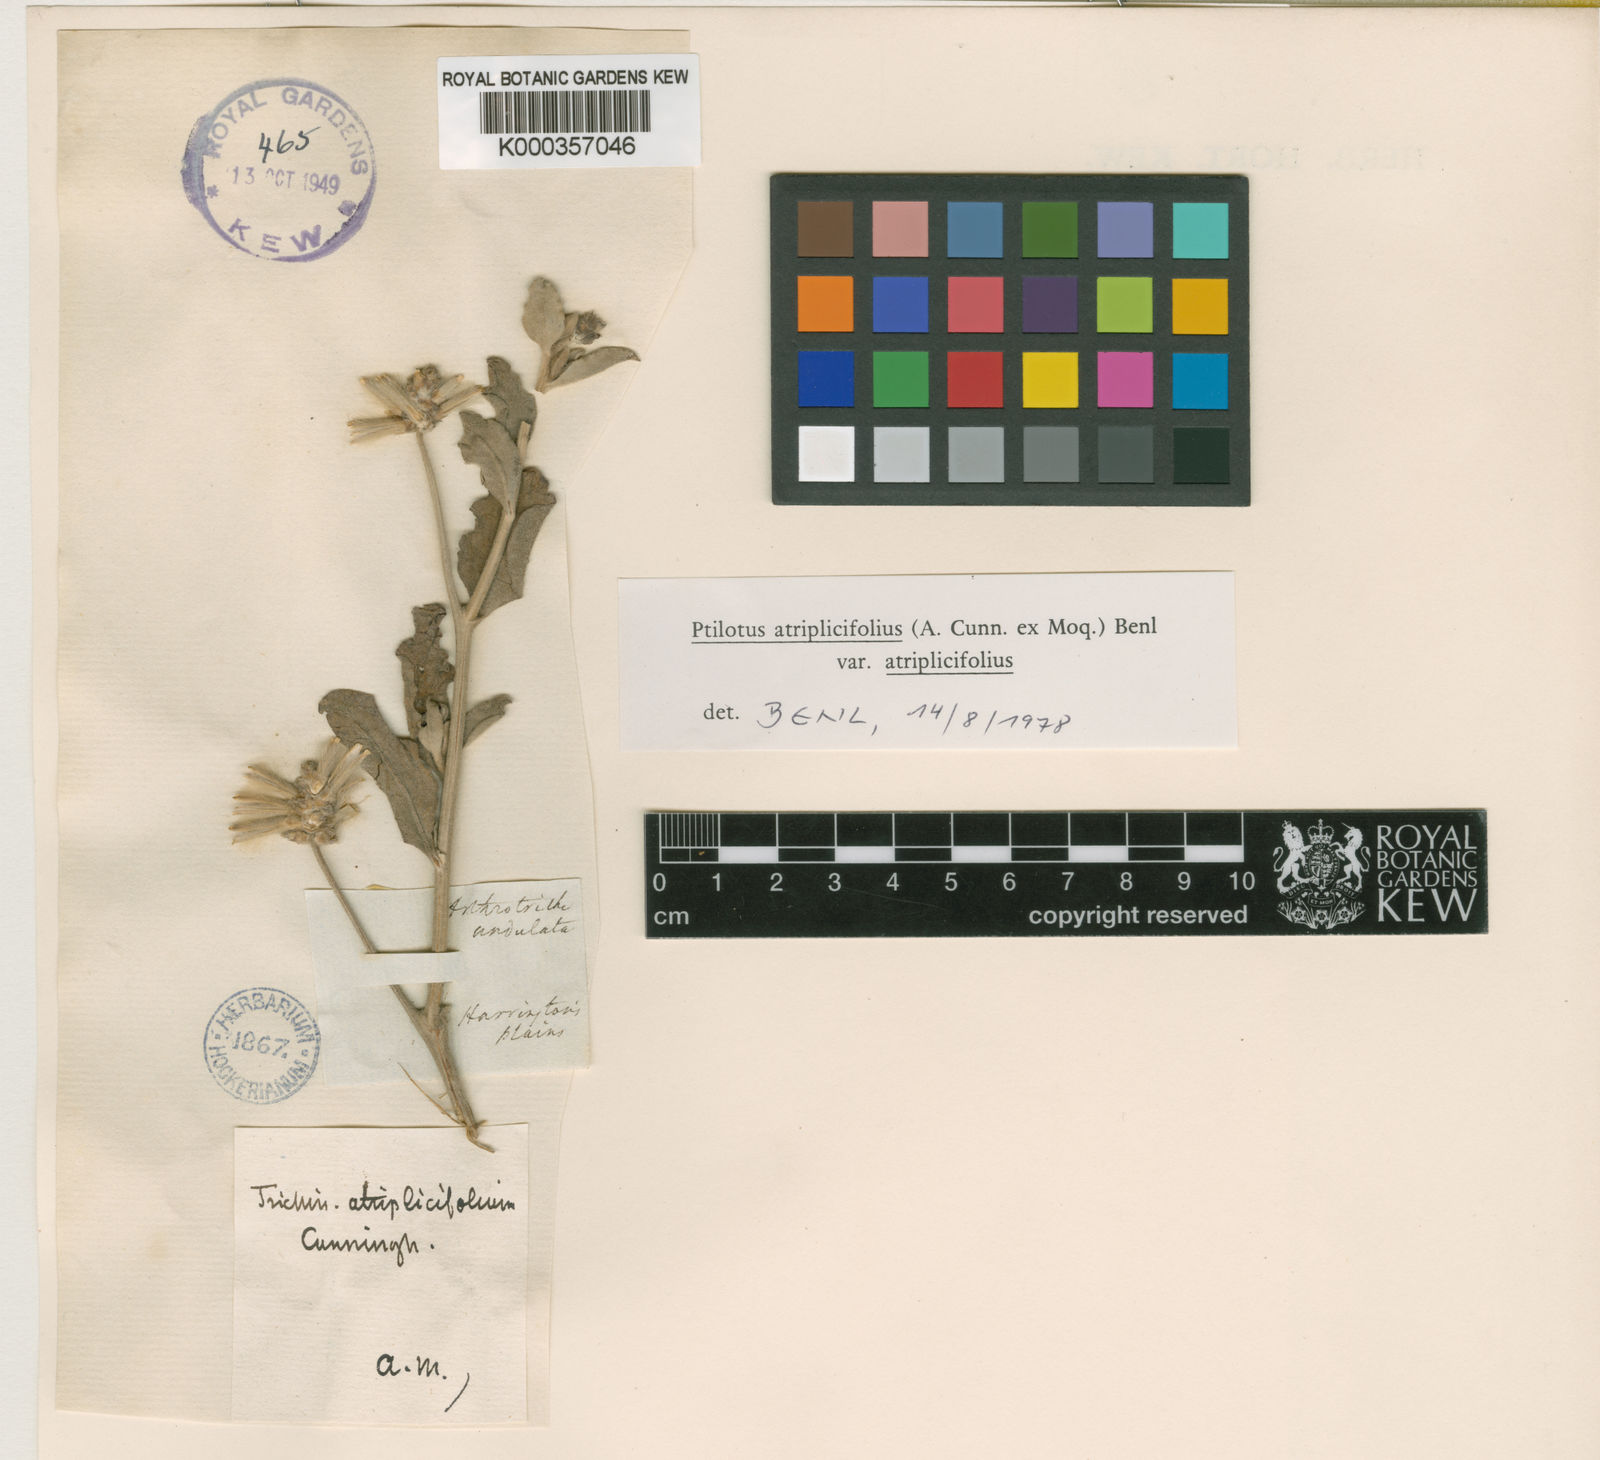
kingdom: Plantae
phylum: Tracheophyta
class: Magnoliopsida
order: Caryophyllales
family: Amaranthaceae
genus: Ptilotus
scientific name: Ptilotus
